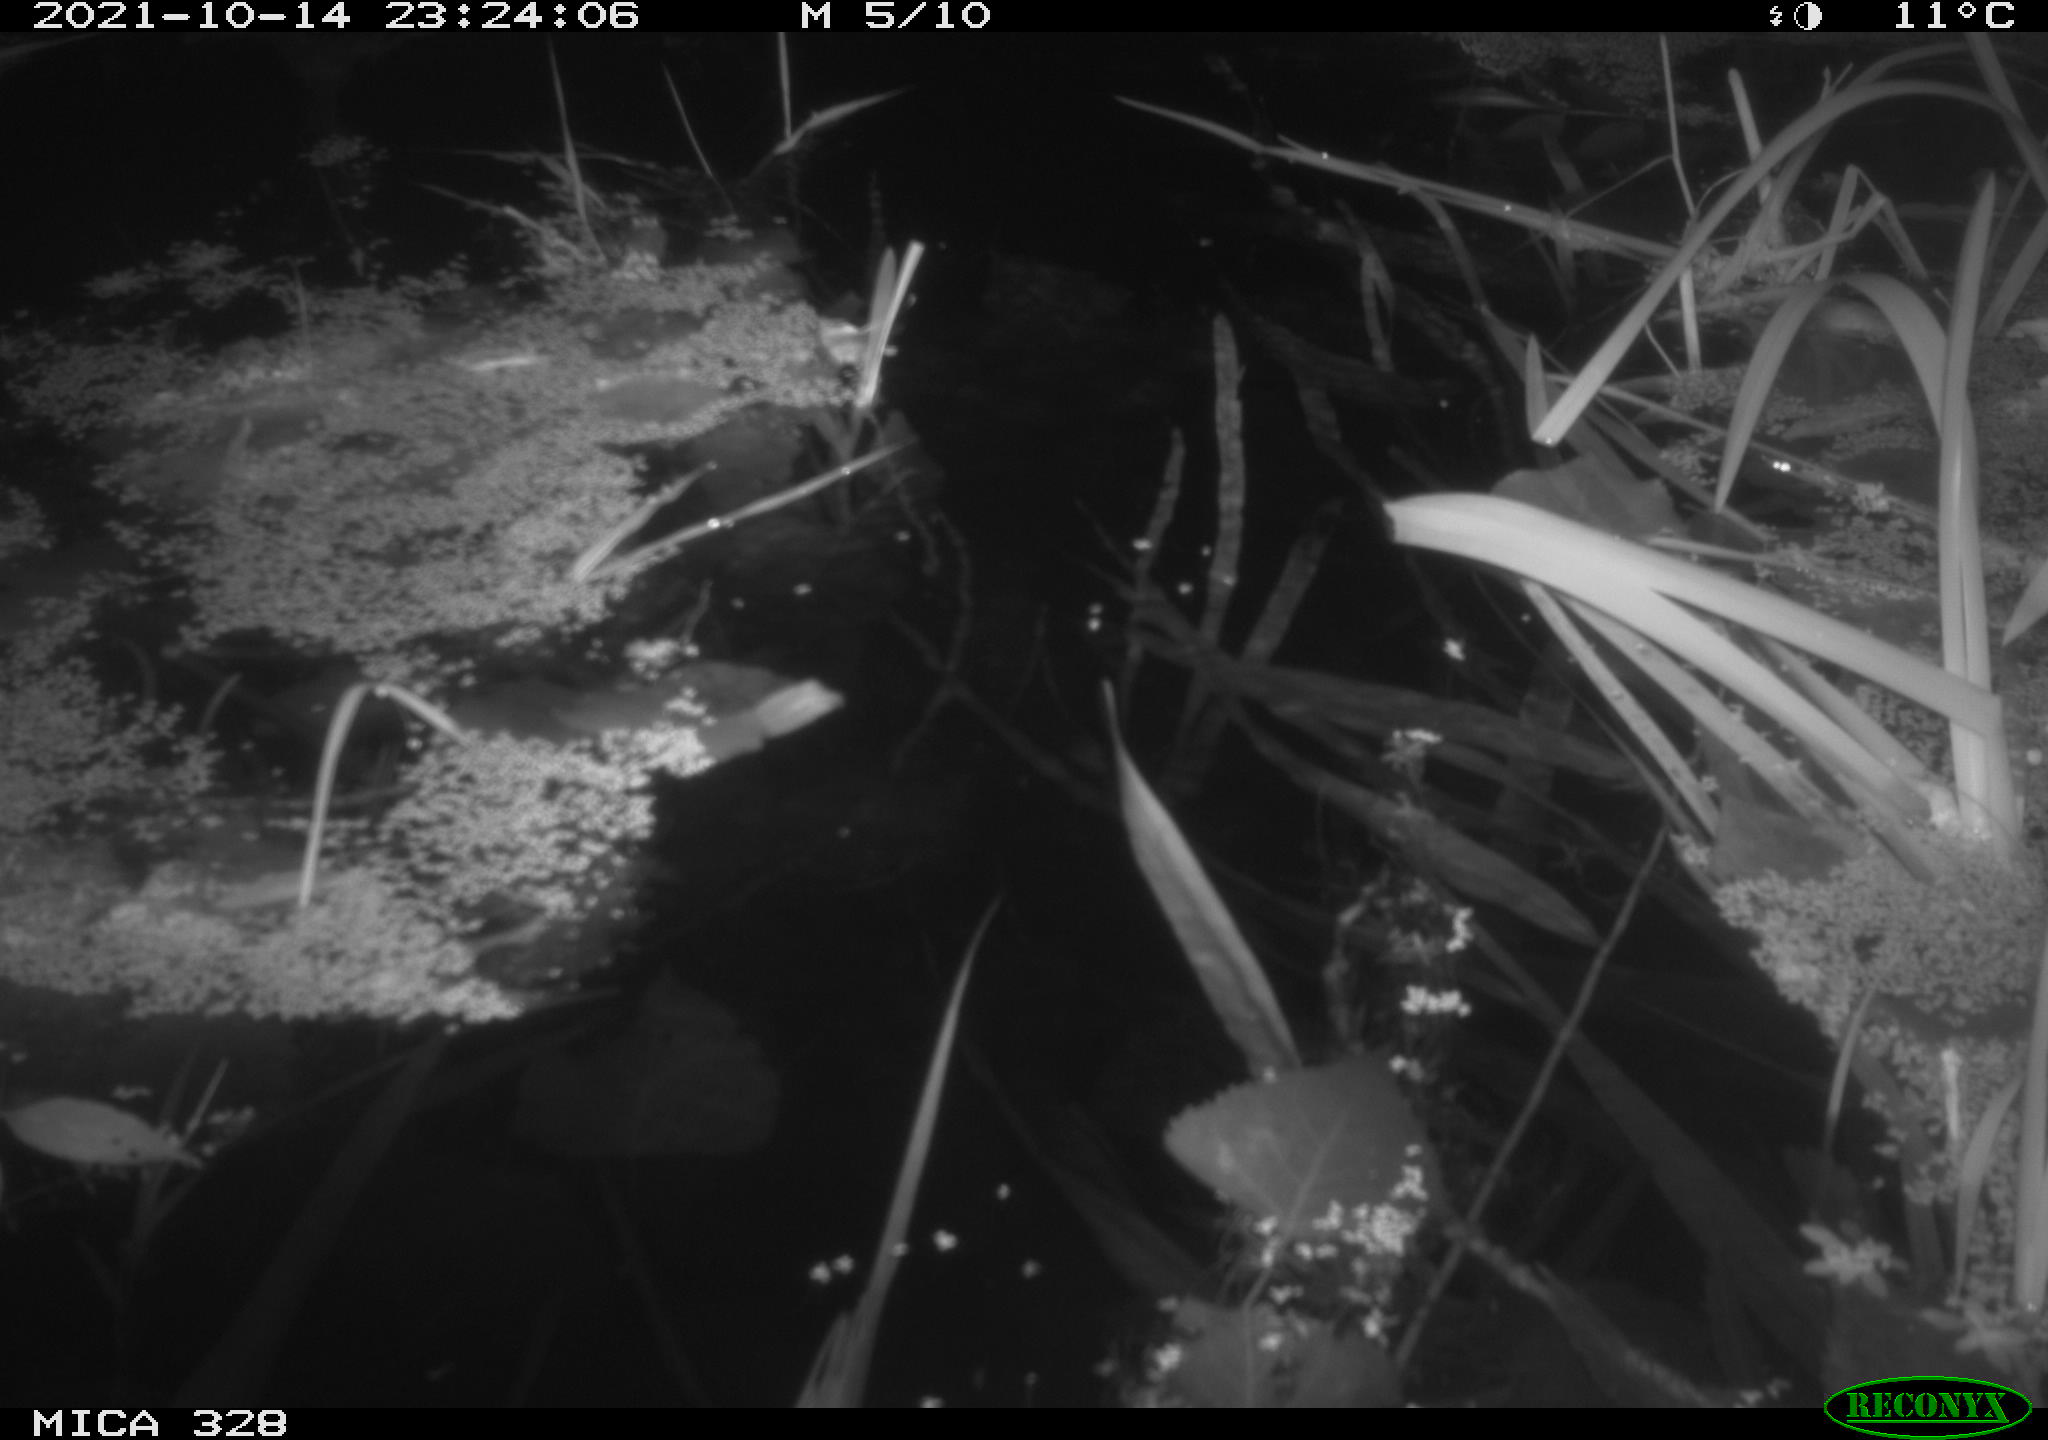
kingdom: Animalia
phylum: Chordata
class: Mammalia
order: Rodentia
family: Cricetidae
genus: Ondatra
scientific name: Ondatra zibethicus
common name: Muskrat
